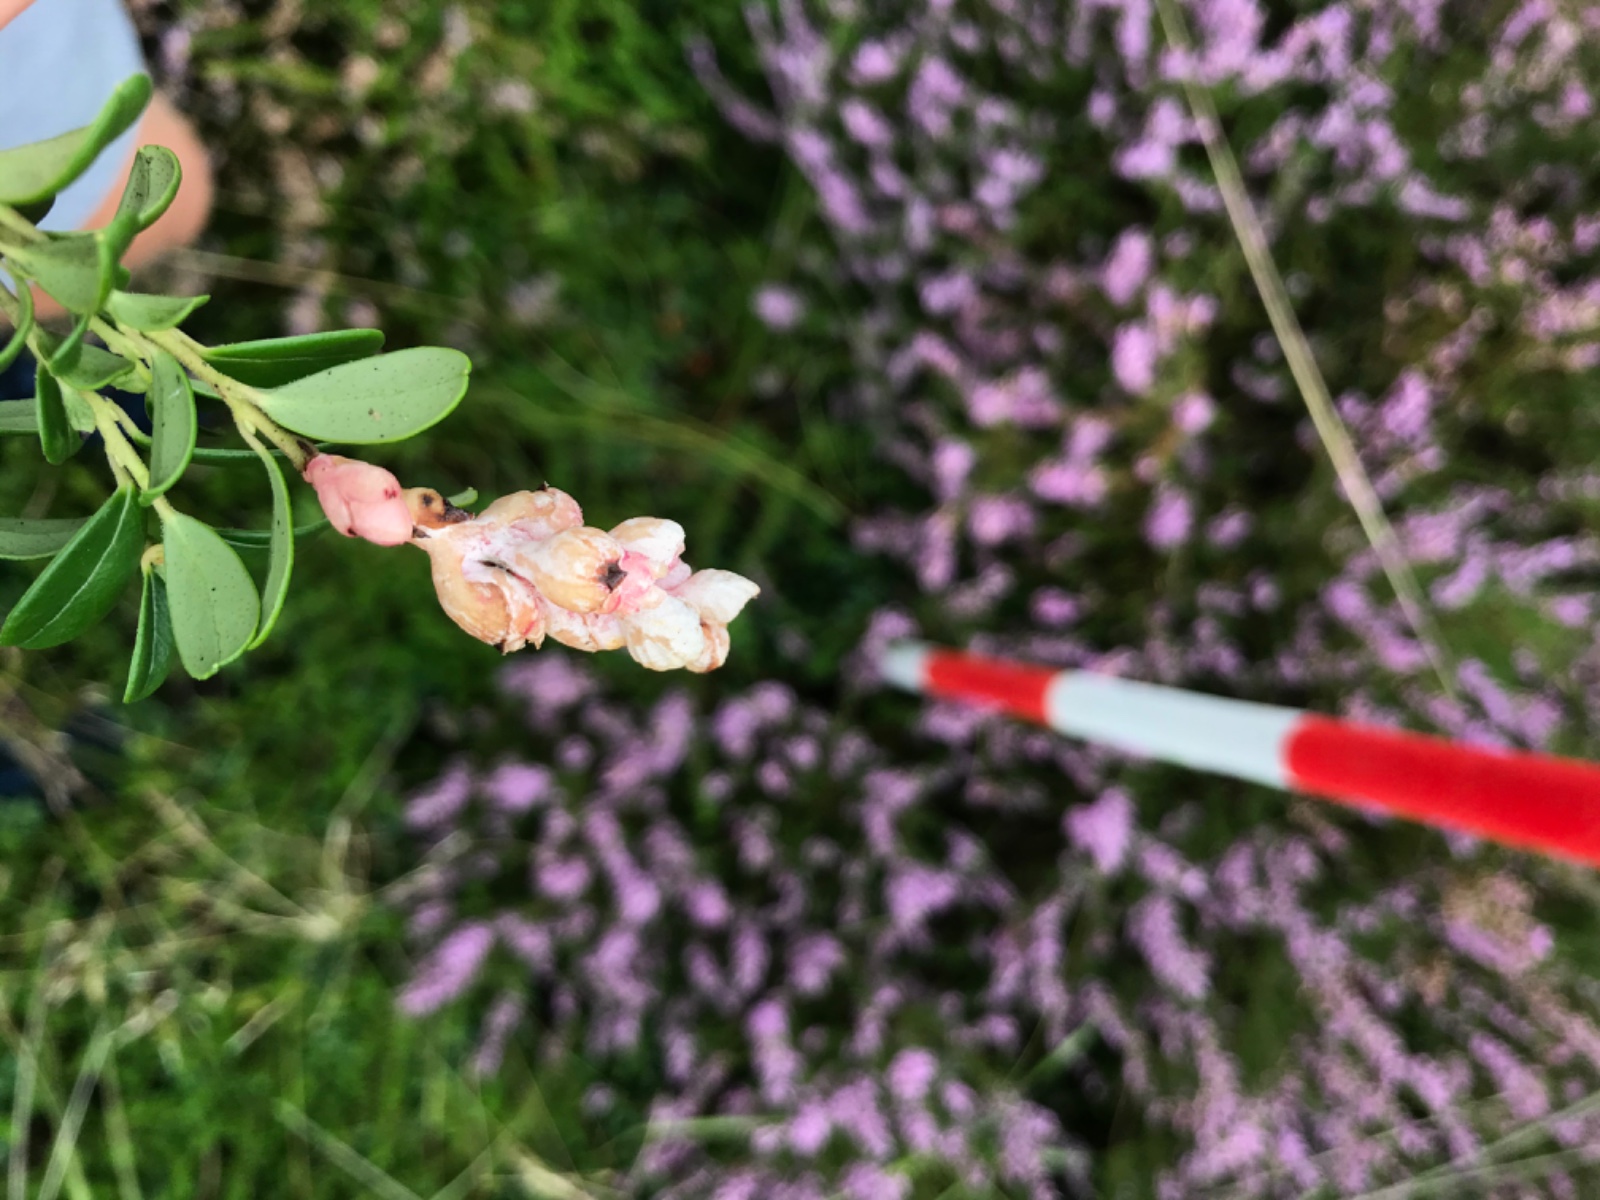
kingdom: Fungi
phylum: Basidiomycota
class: Exobasidiomycetes
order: Exobasidiales
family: Exobasidiaceae
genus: Exobasidium
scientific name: Exobasidium vaccinii
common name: tyttebærblad-bøllesvamp
